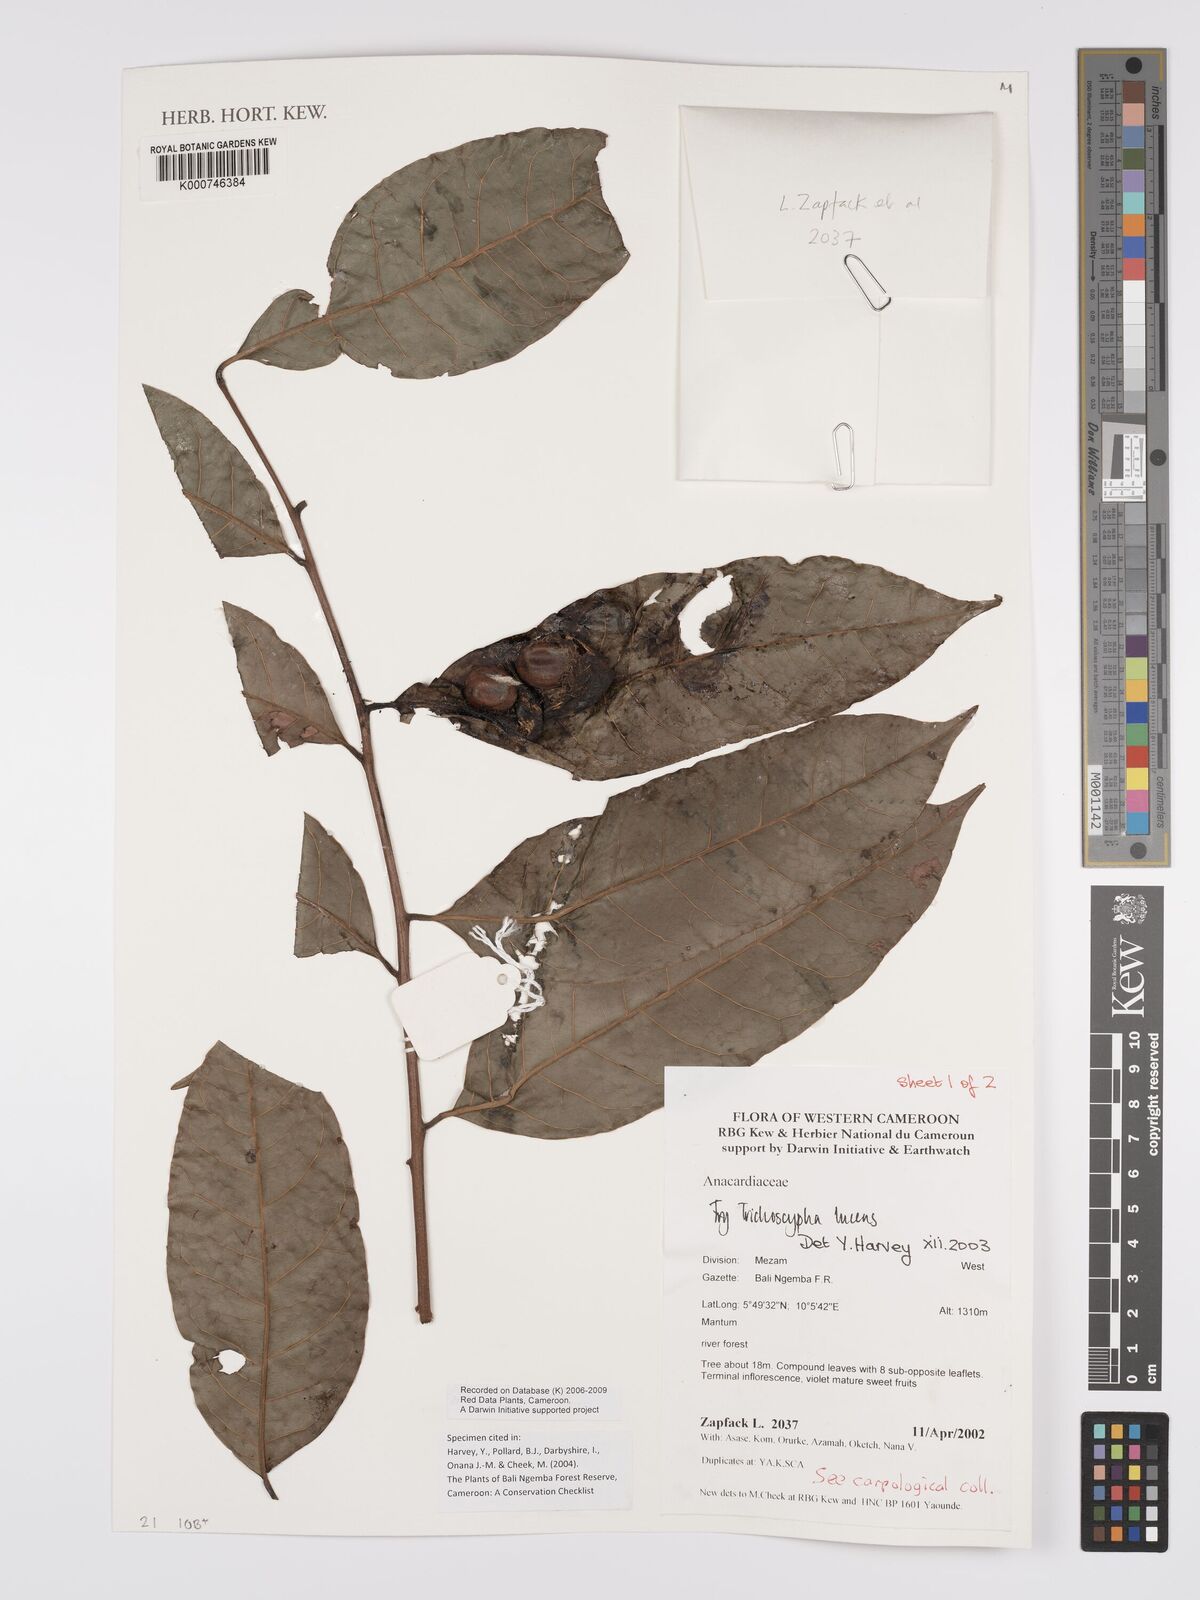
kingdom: Plantae
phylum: Tracheophyta
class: Magnoliopsida
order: Sapindales
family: Anacardiaceae
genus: Trichoscypha
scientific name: Trichoscypha lucens
